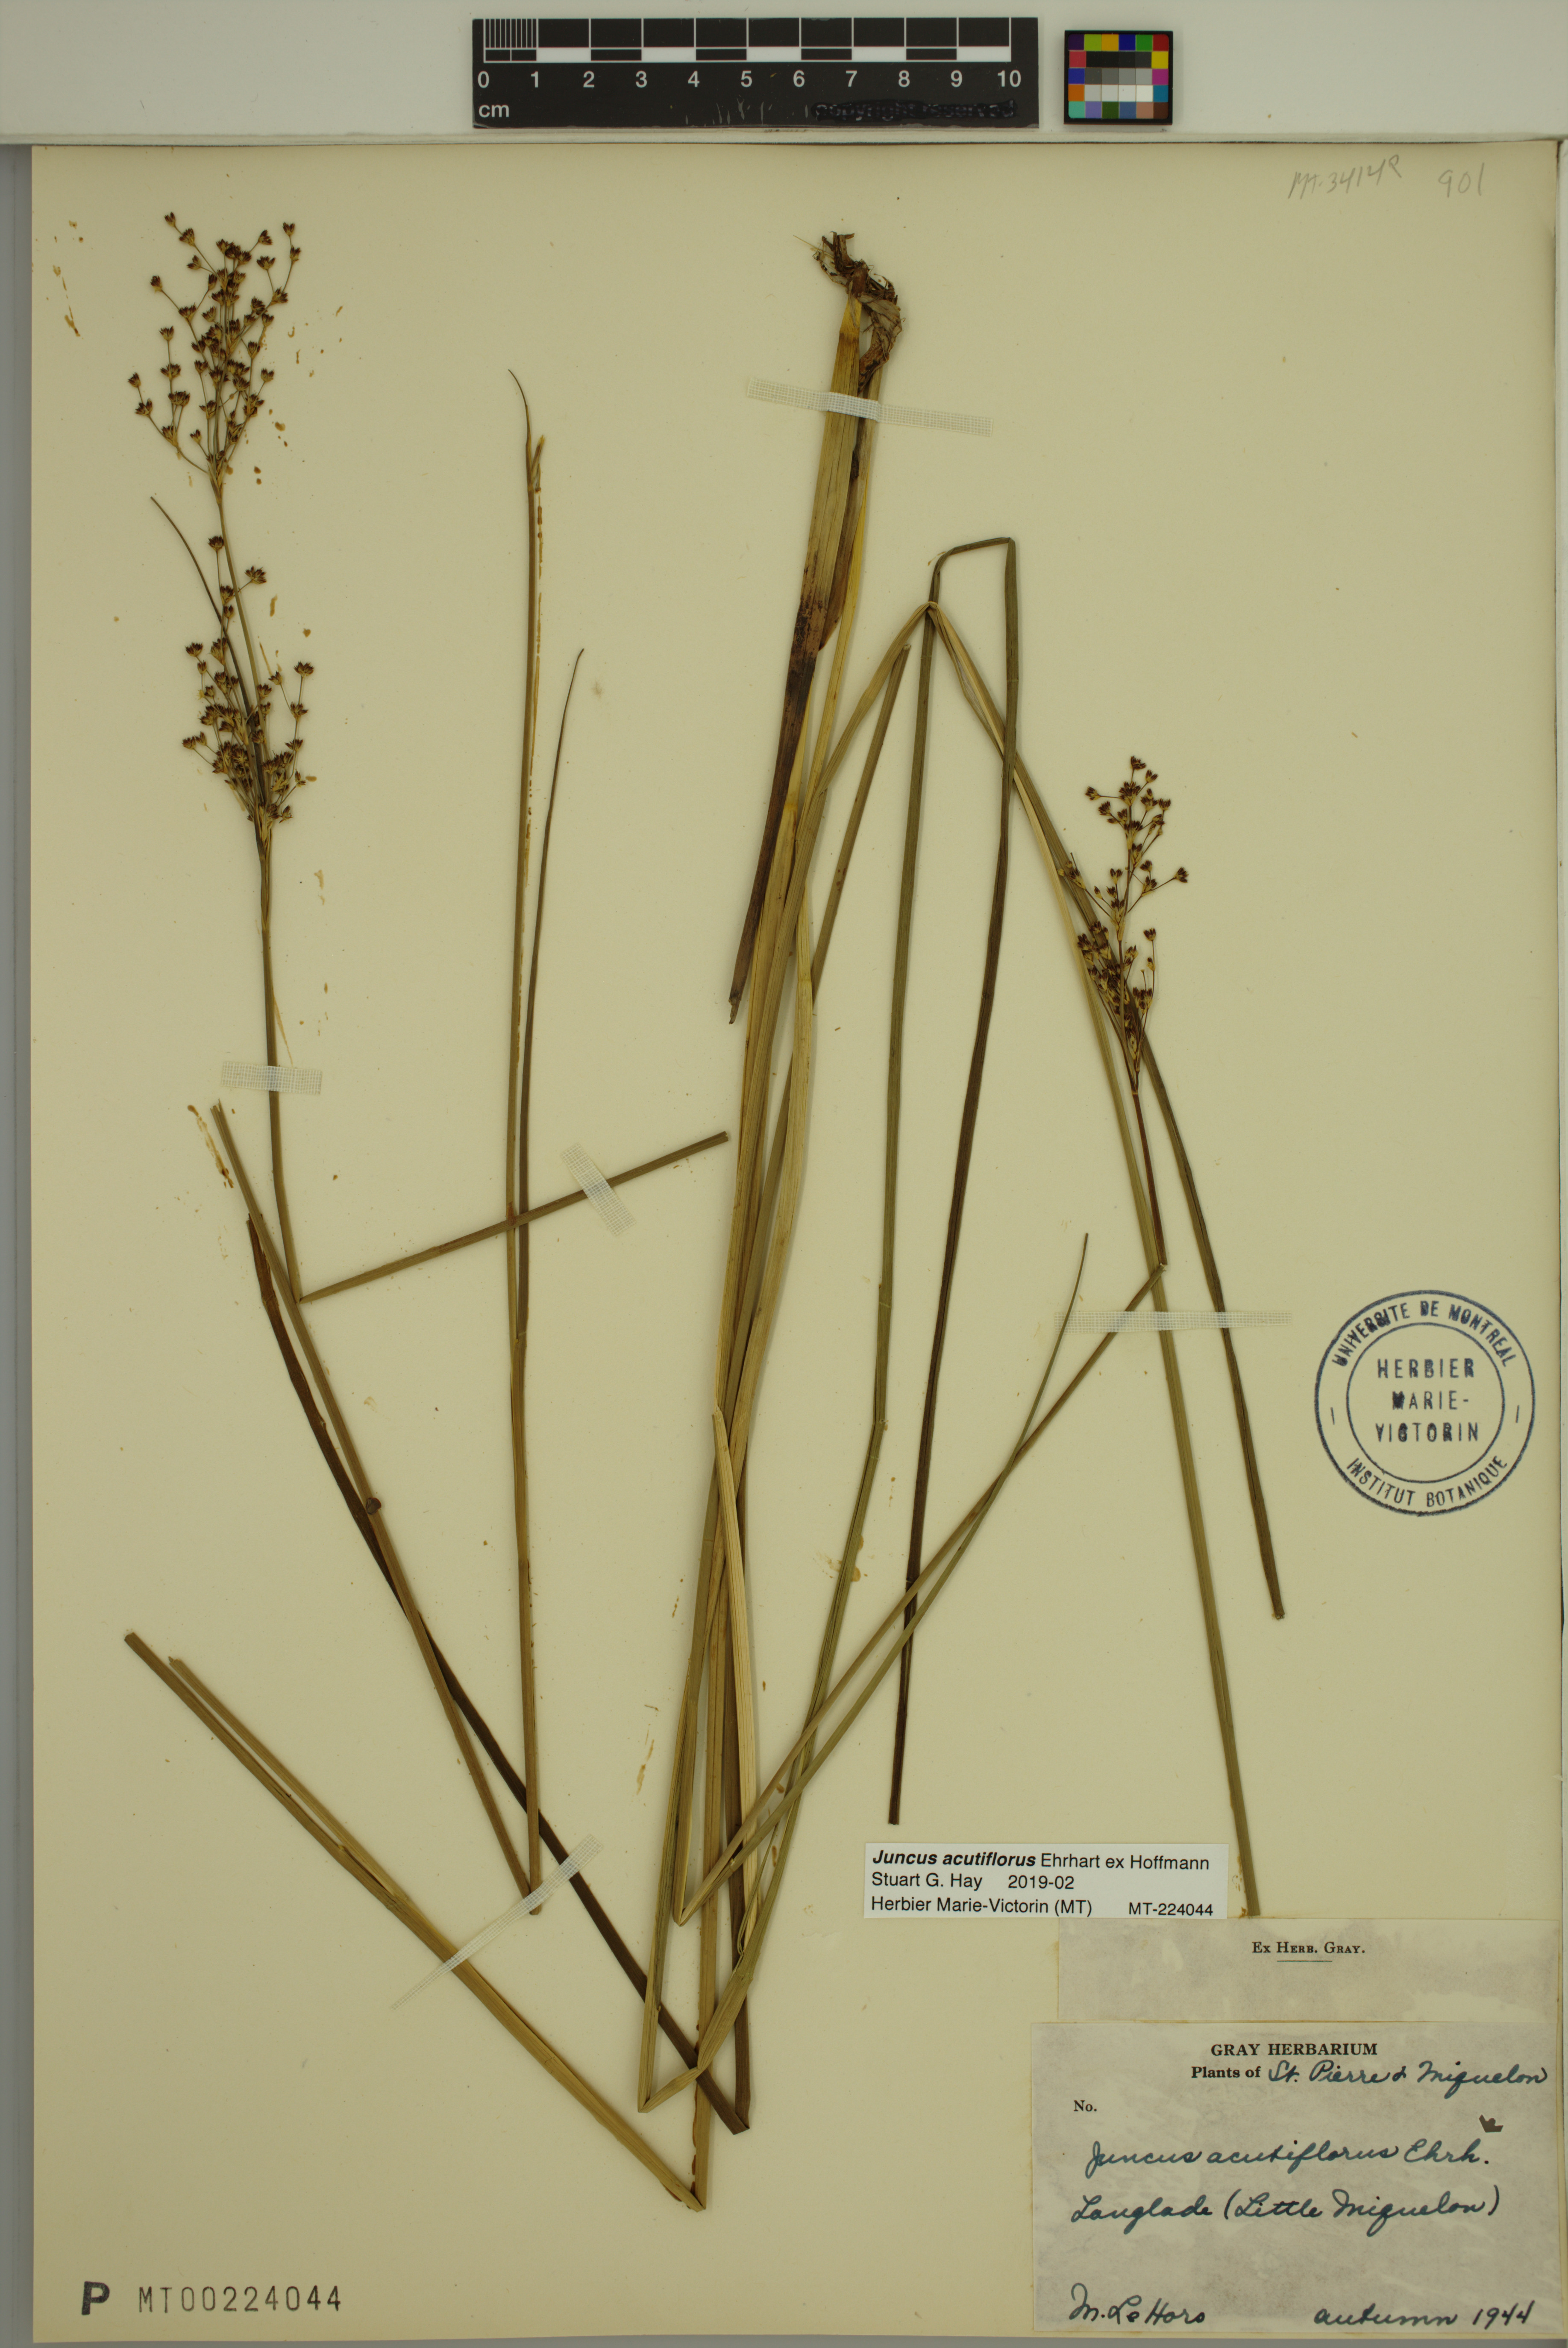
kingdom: Plantae
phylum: Tracheophyta
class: Liliopsida
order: Poales
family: Juncaceae
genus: Juncus
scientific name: Juncus acutiflorus
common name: Sharp-flowered rush
